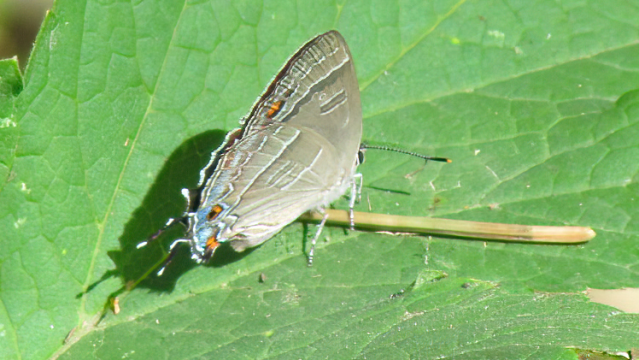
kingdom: Animalia
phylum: Arthropoda
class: Insecta
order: Lepidoptera
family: Lycaenidae
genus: Hypaurotis
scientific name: Hypaurotis crysalus
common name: Colorado Hairstreak
